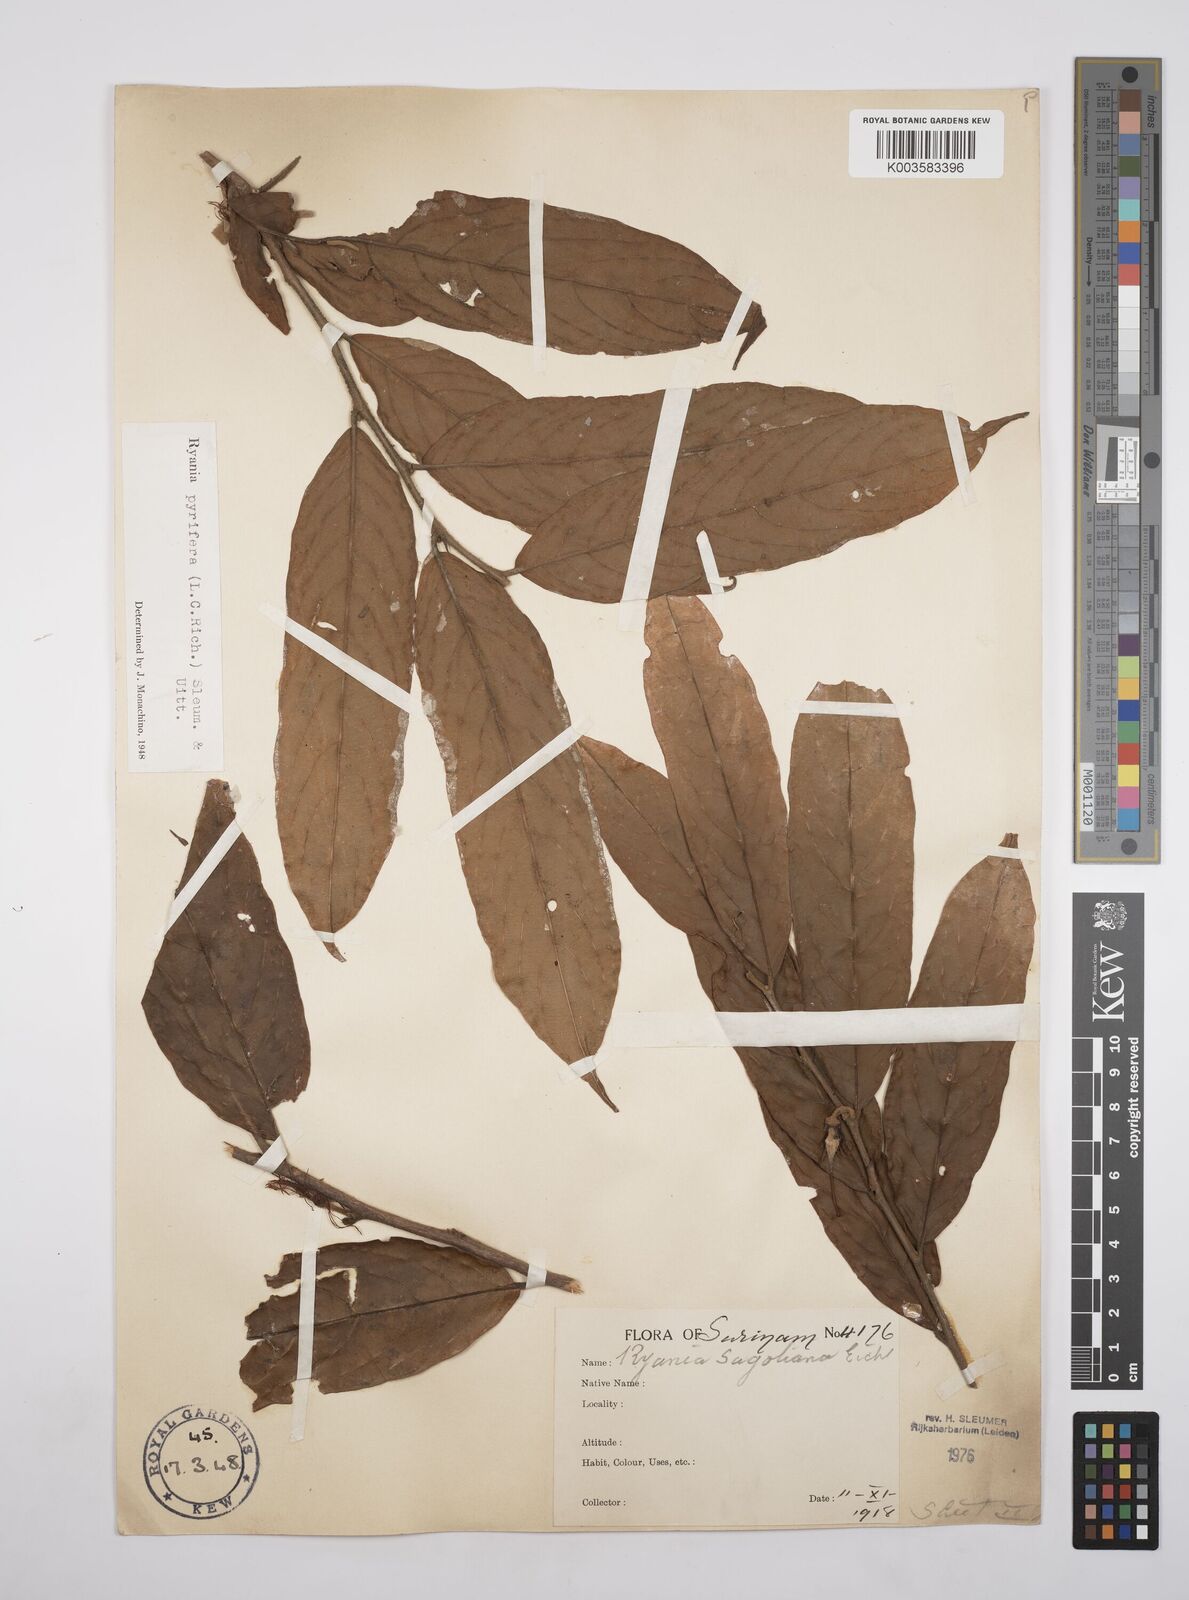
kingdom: Plantae
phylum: Tracheophyta
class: Magnoliopsida
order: Malpighiales
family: Salicaceae
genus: Ryania
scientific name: Ryania pyrifera
